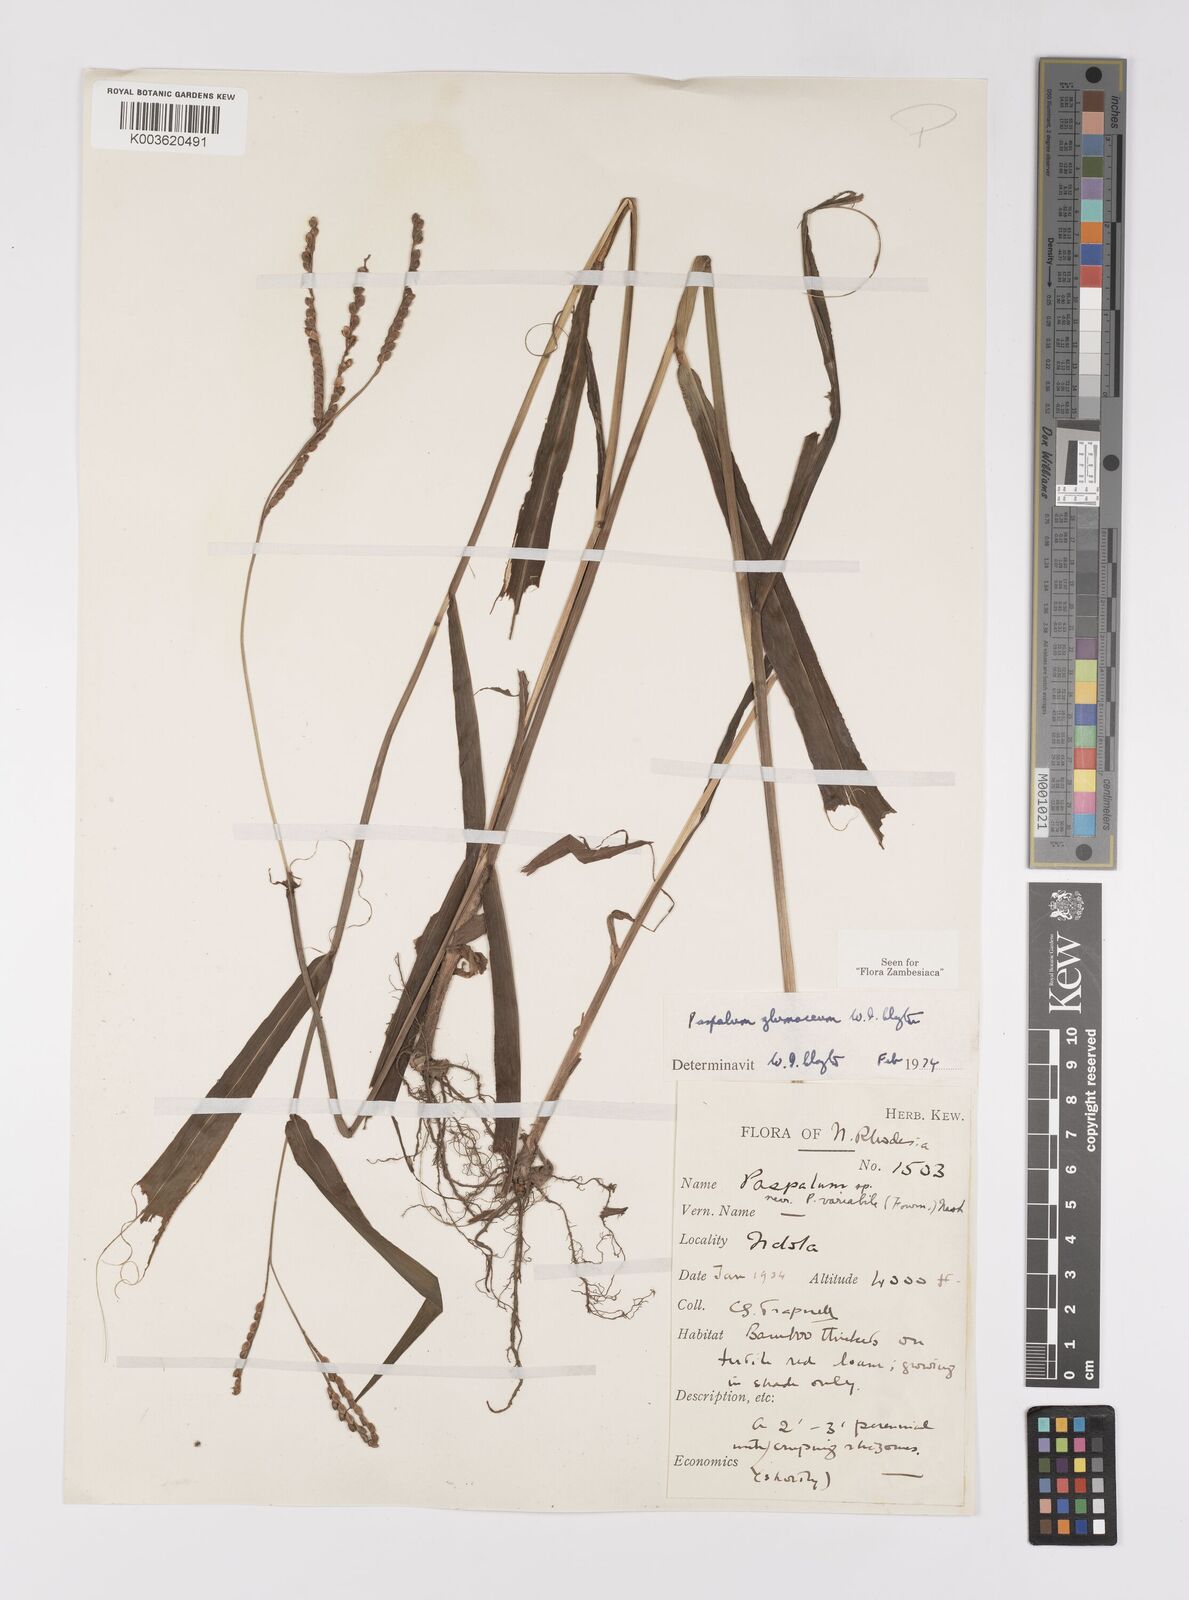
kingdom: Plantae
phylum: Tracheophyta
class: Liliopsida
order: Poales
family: Poaceae
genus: Paspalum
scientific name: Paspalum glumaceum
